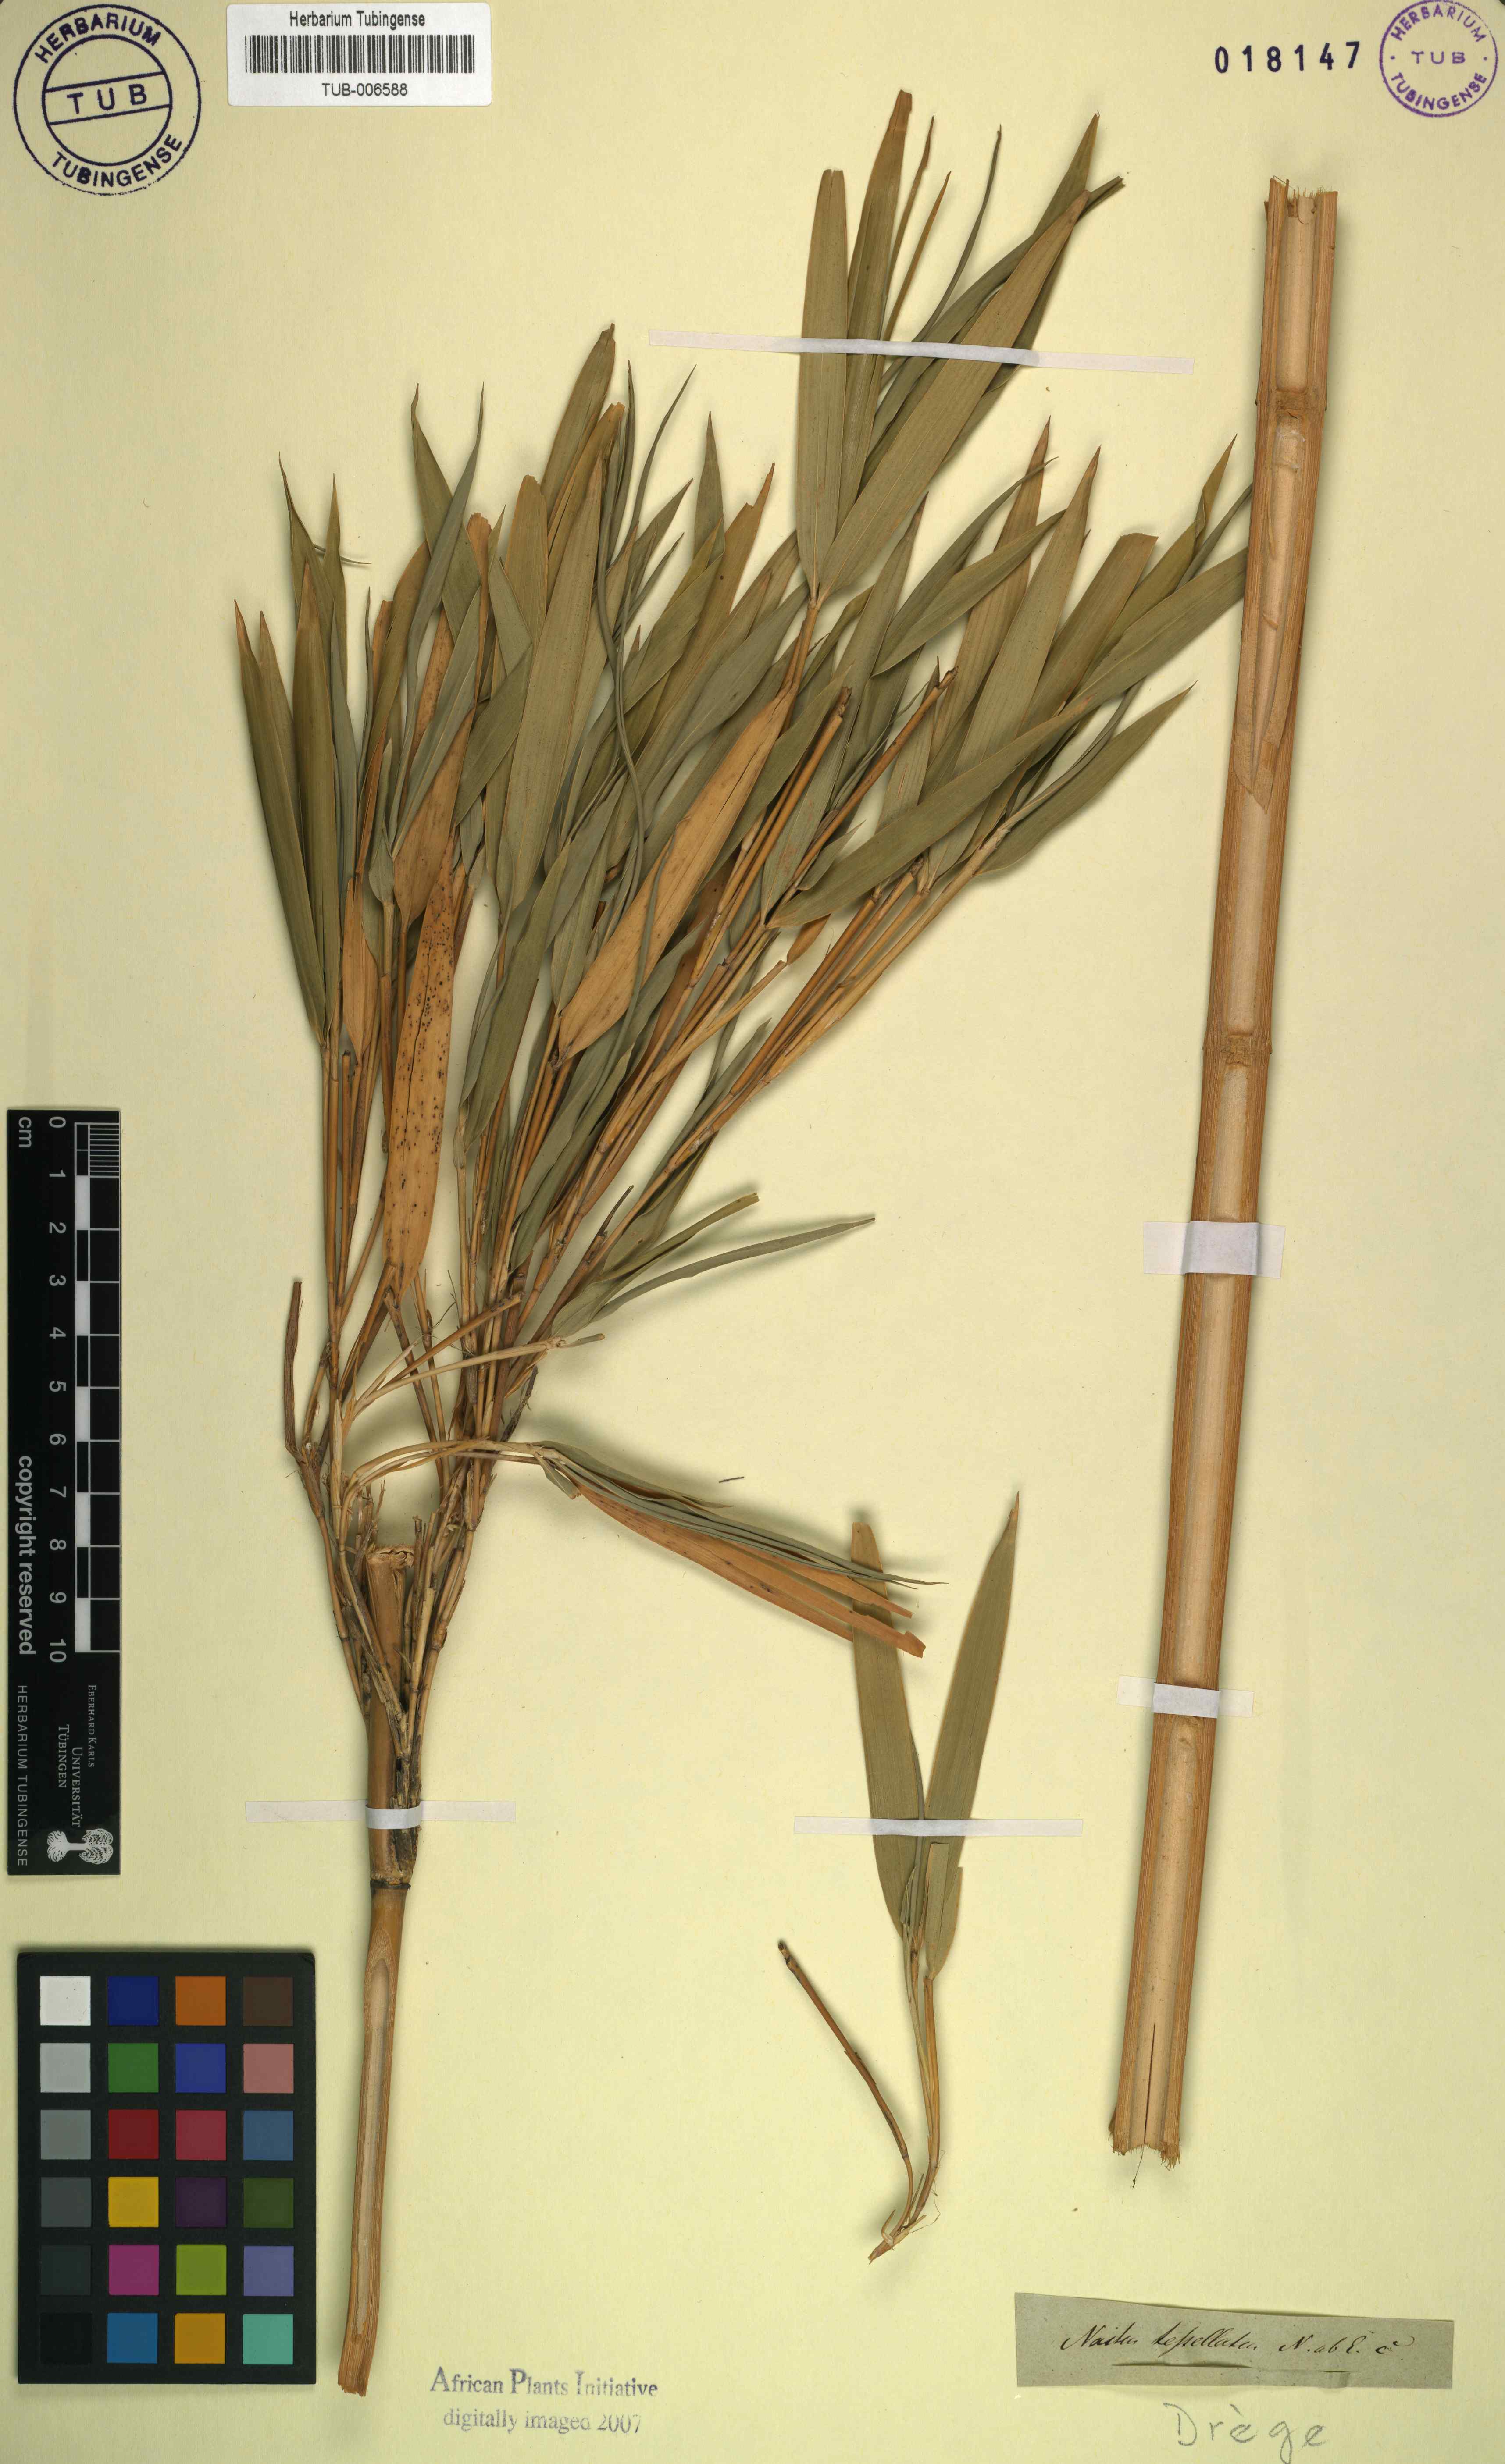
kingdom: Plantae
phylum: Tracheophyta
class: Liliopsida
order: Poales
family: Poaceae
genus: Pleioblastus
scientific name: Pleioblastus variegatus
